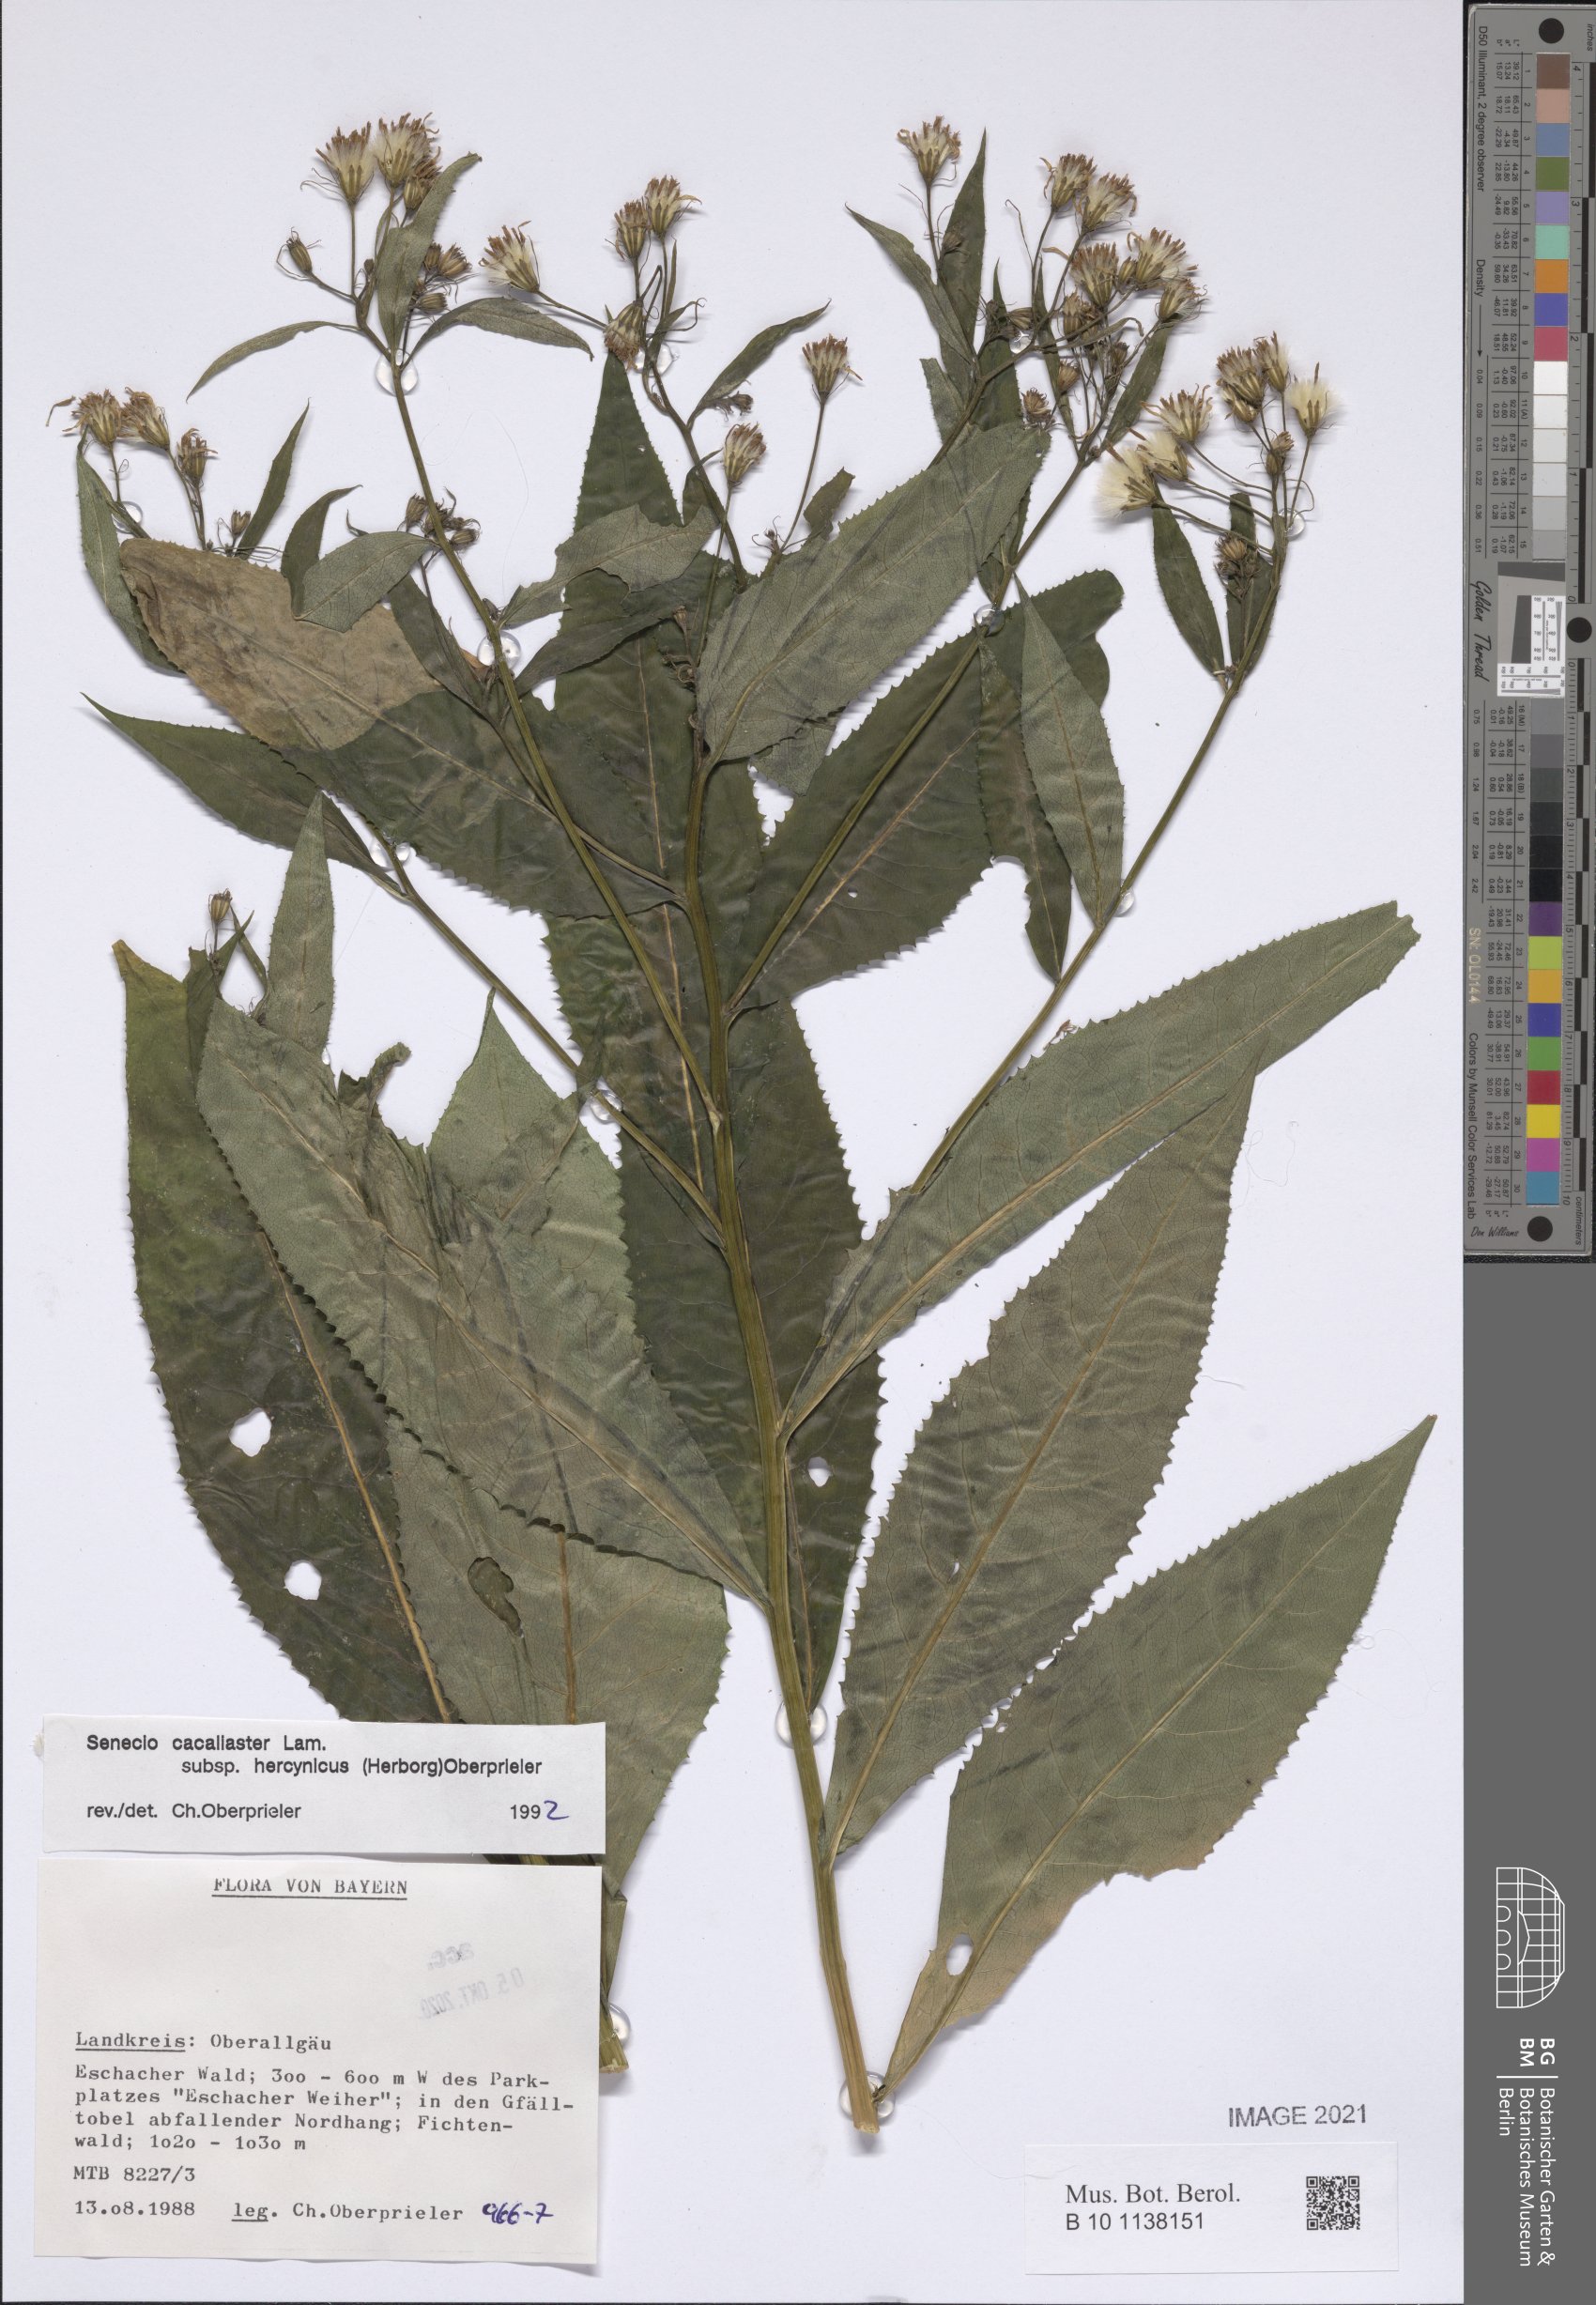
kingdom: Plantae
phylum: Tracheophyta
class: Magnoliopsida
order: Asterales
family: Asteraceae
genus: Senecio
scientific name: Senecio hercynicus
